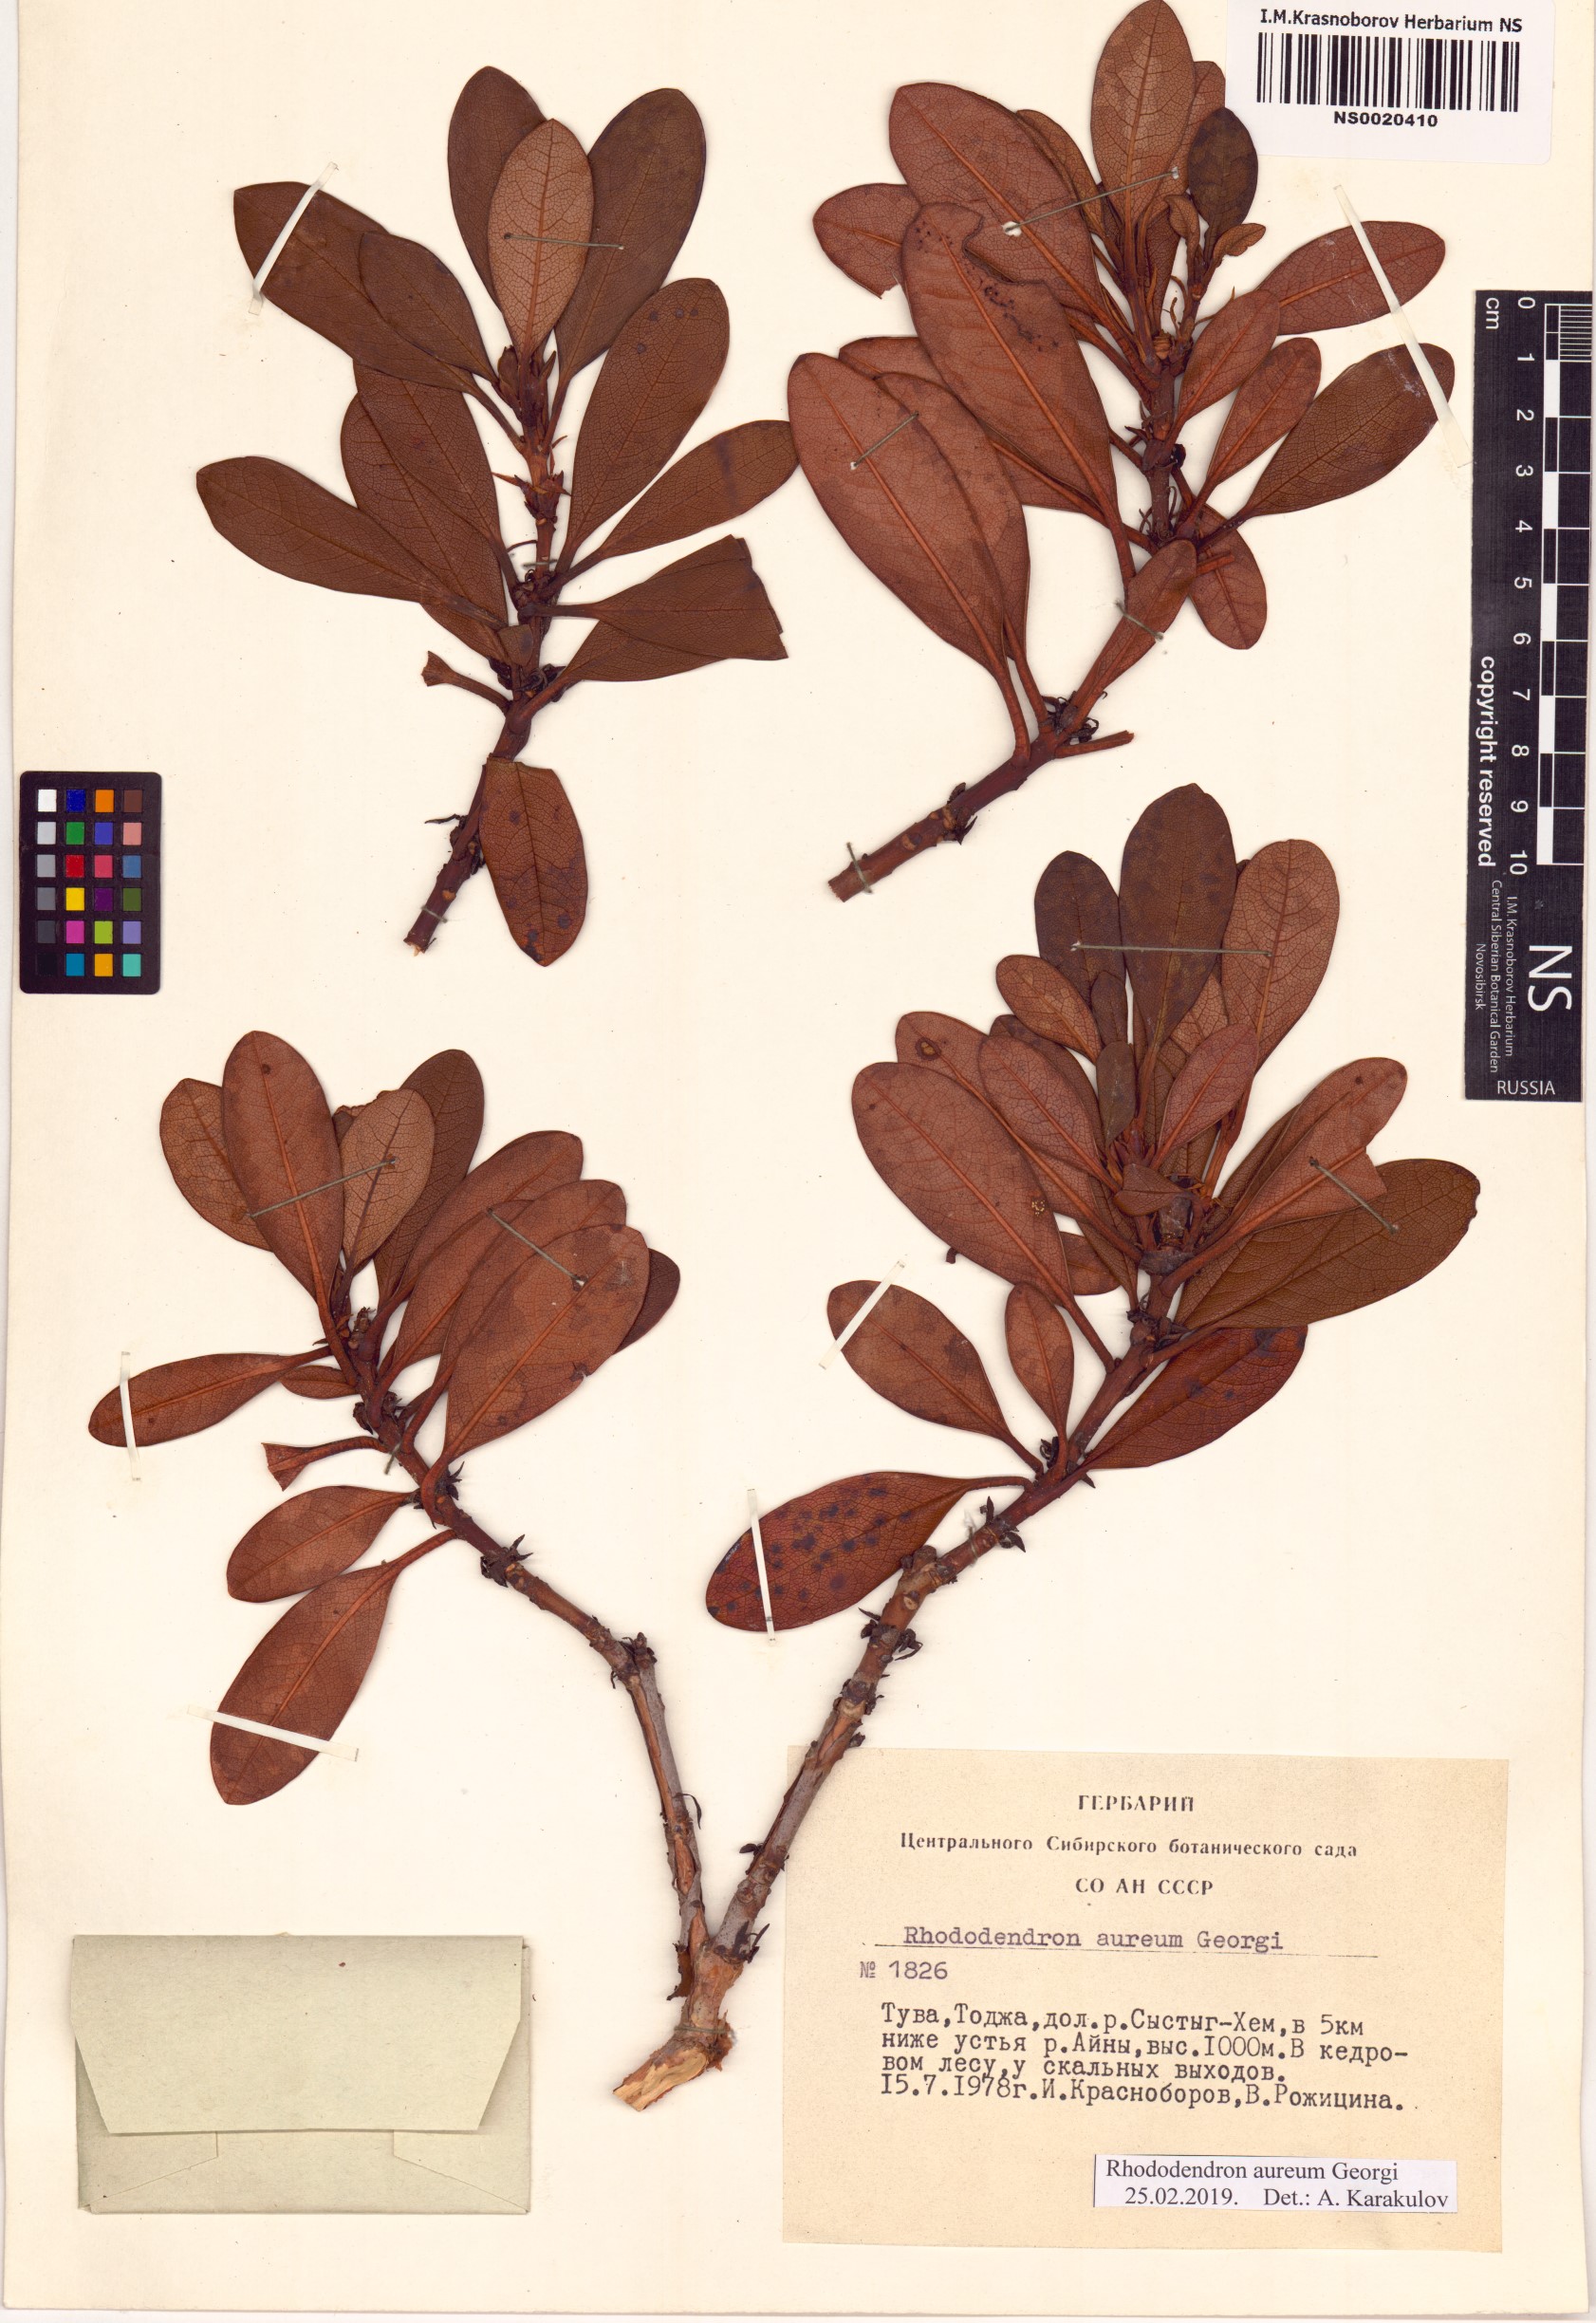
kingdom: Plantae
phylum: Tracheophyta
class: Magnoliopsida
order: Ericales
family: Ericaceae
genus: Rhododendron
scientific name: Rhododendron aureum
